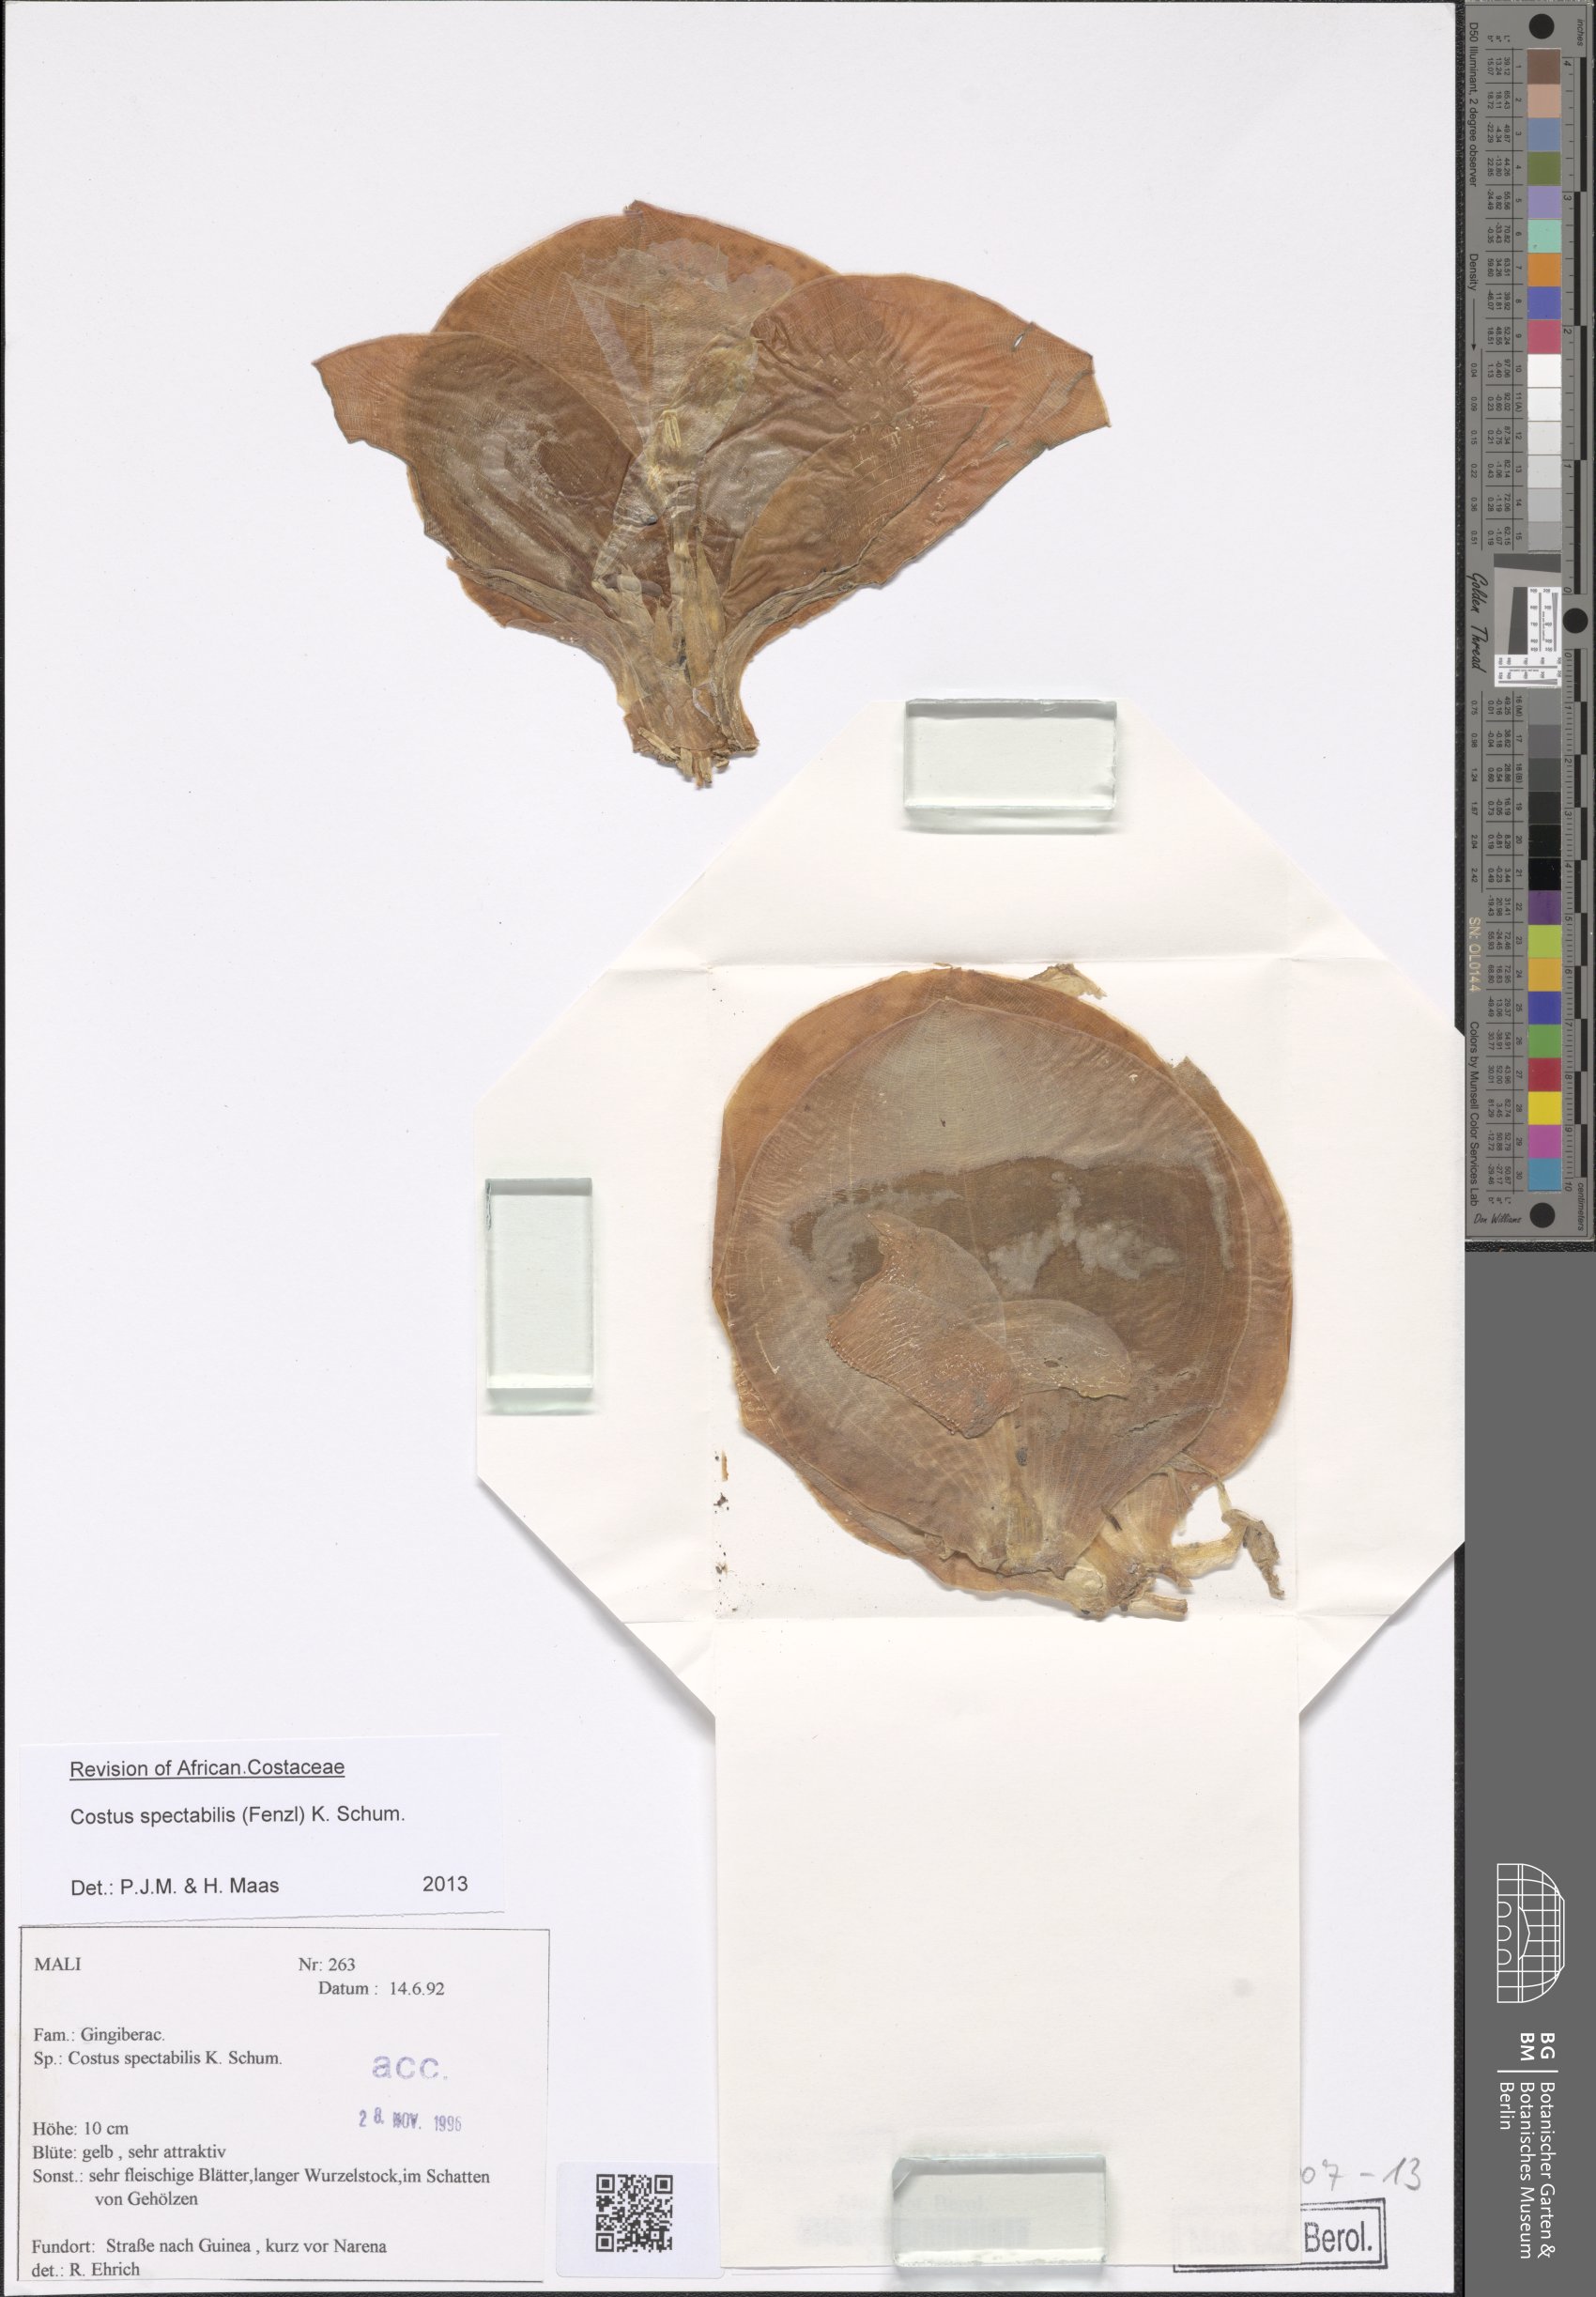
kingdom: Plantae
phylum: Tracheophyta
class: Liliopsida
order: Zingiberales
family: Costaceae
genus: Costus
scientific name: Costus spectabilis
